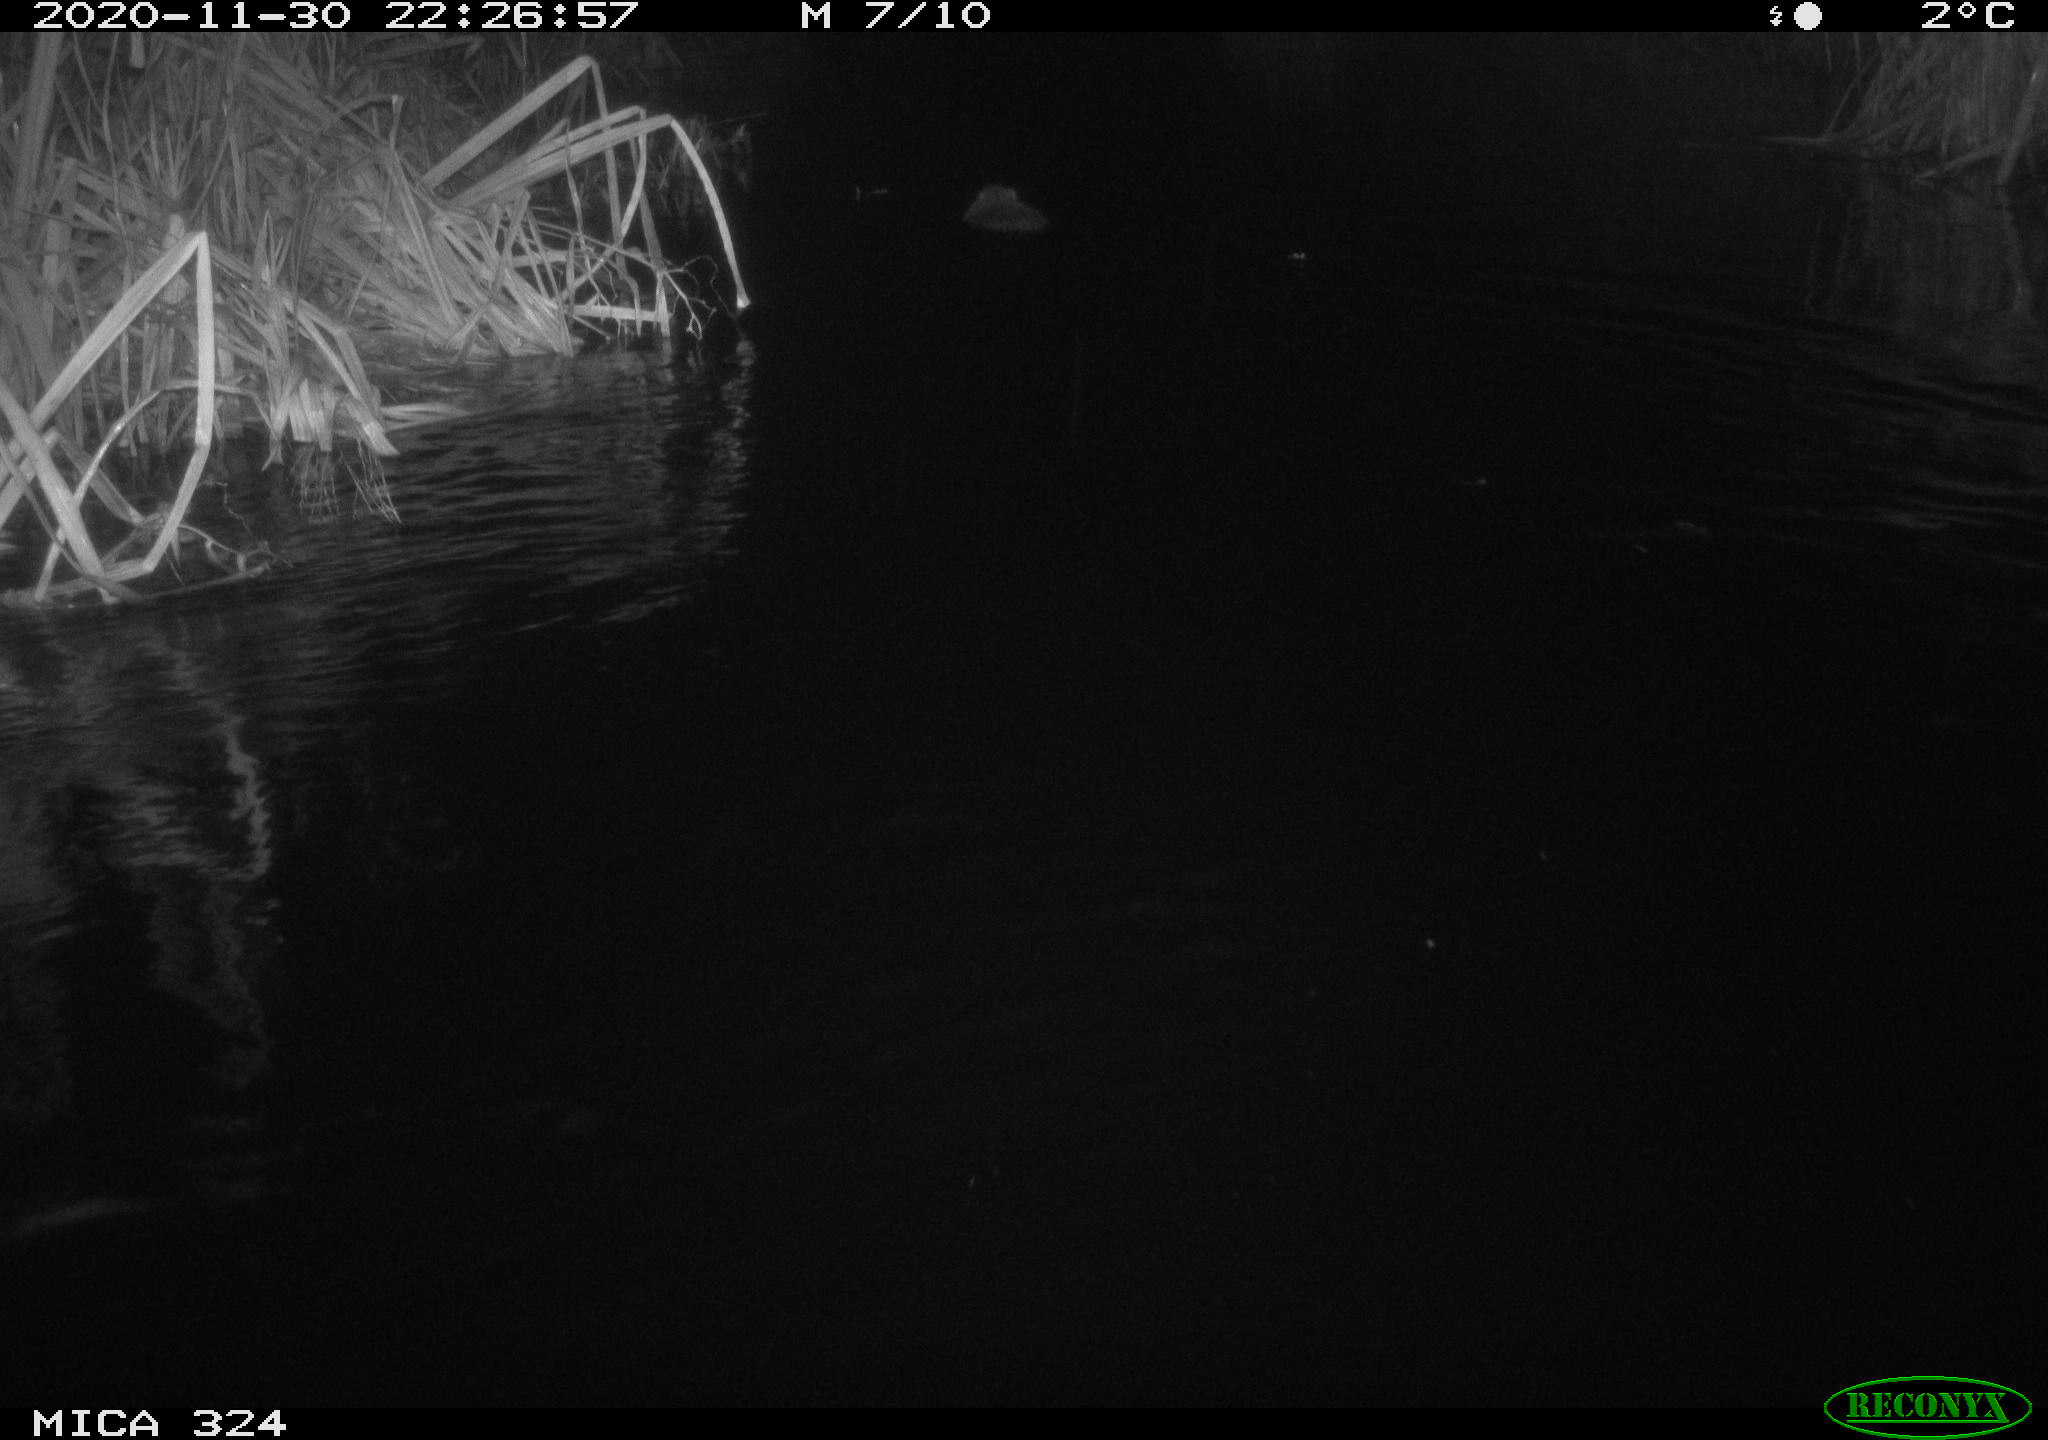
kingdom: Animalia
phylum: Chordata
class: Mammalia
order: Rodentia
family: Myocastoridae
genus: Myocastor
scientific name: Myocastor coypus
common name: Coypu
